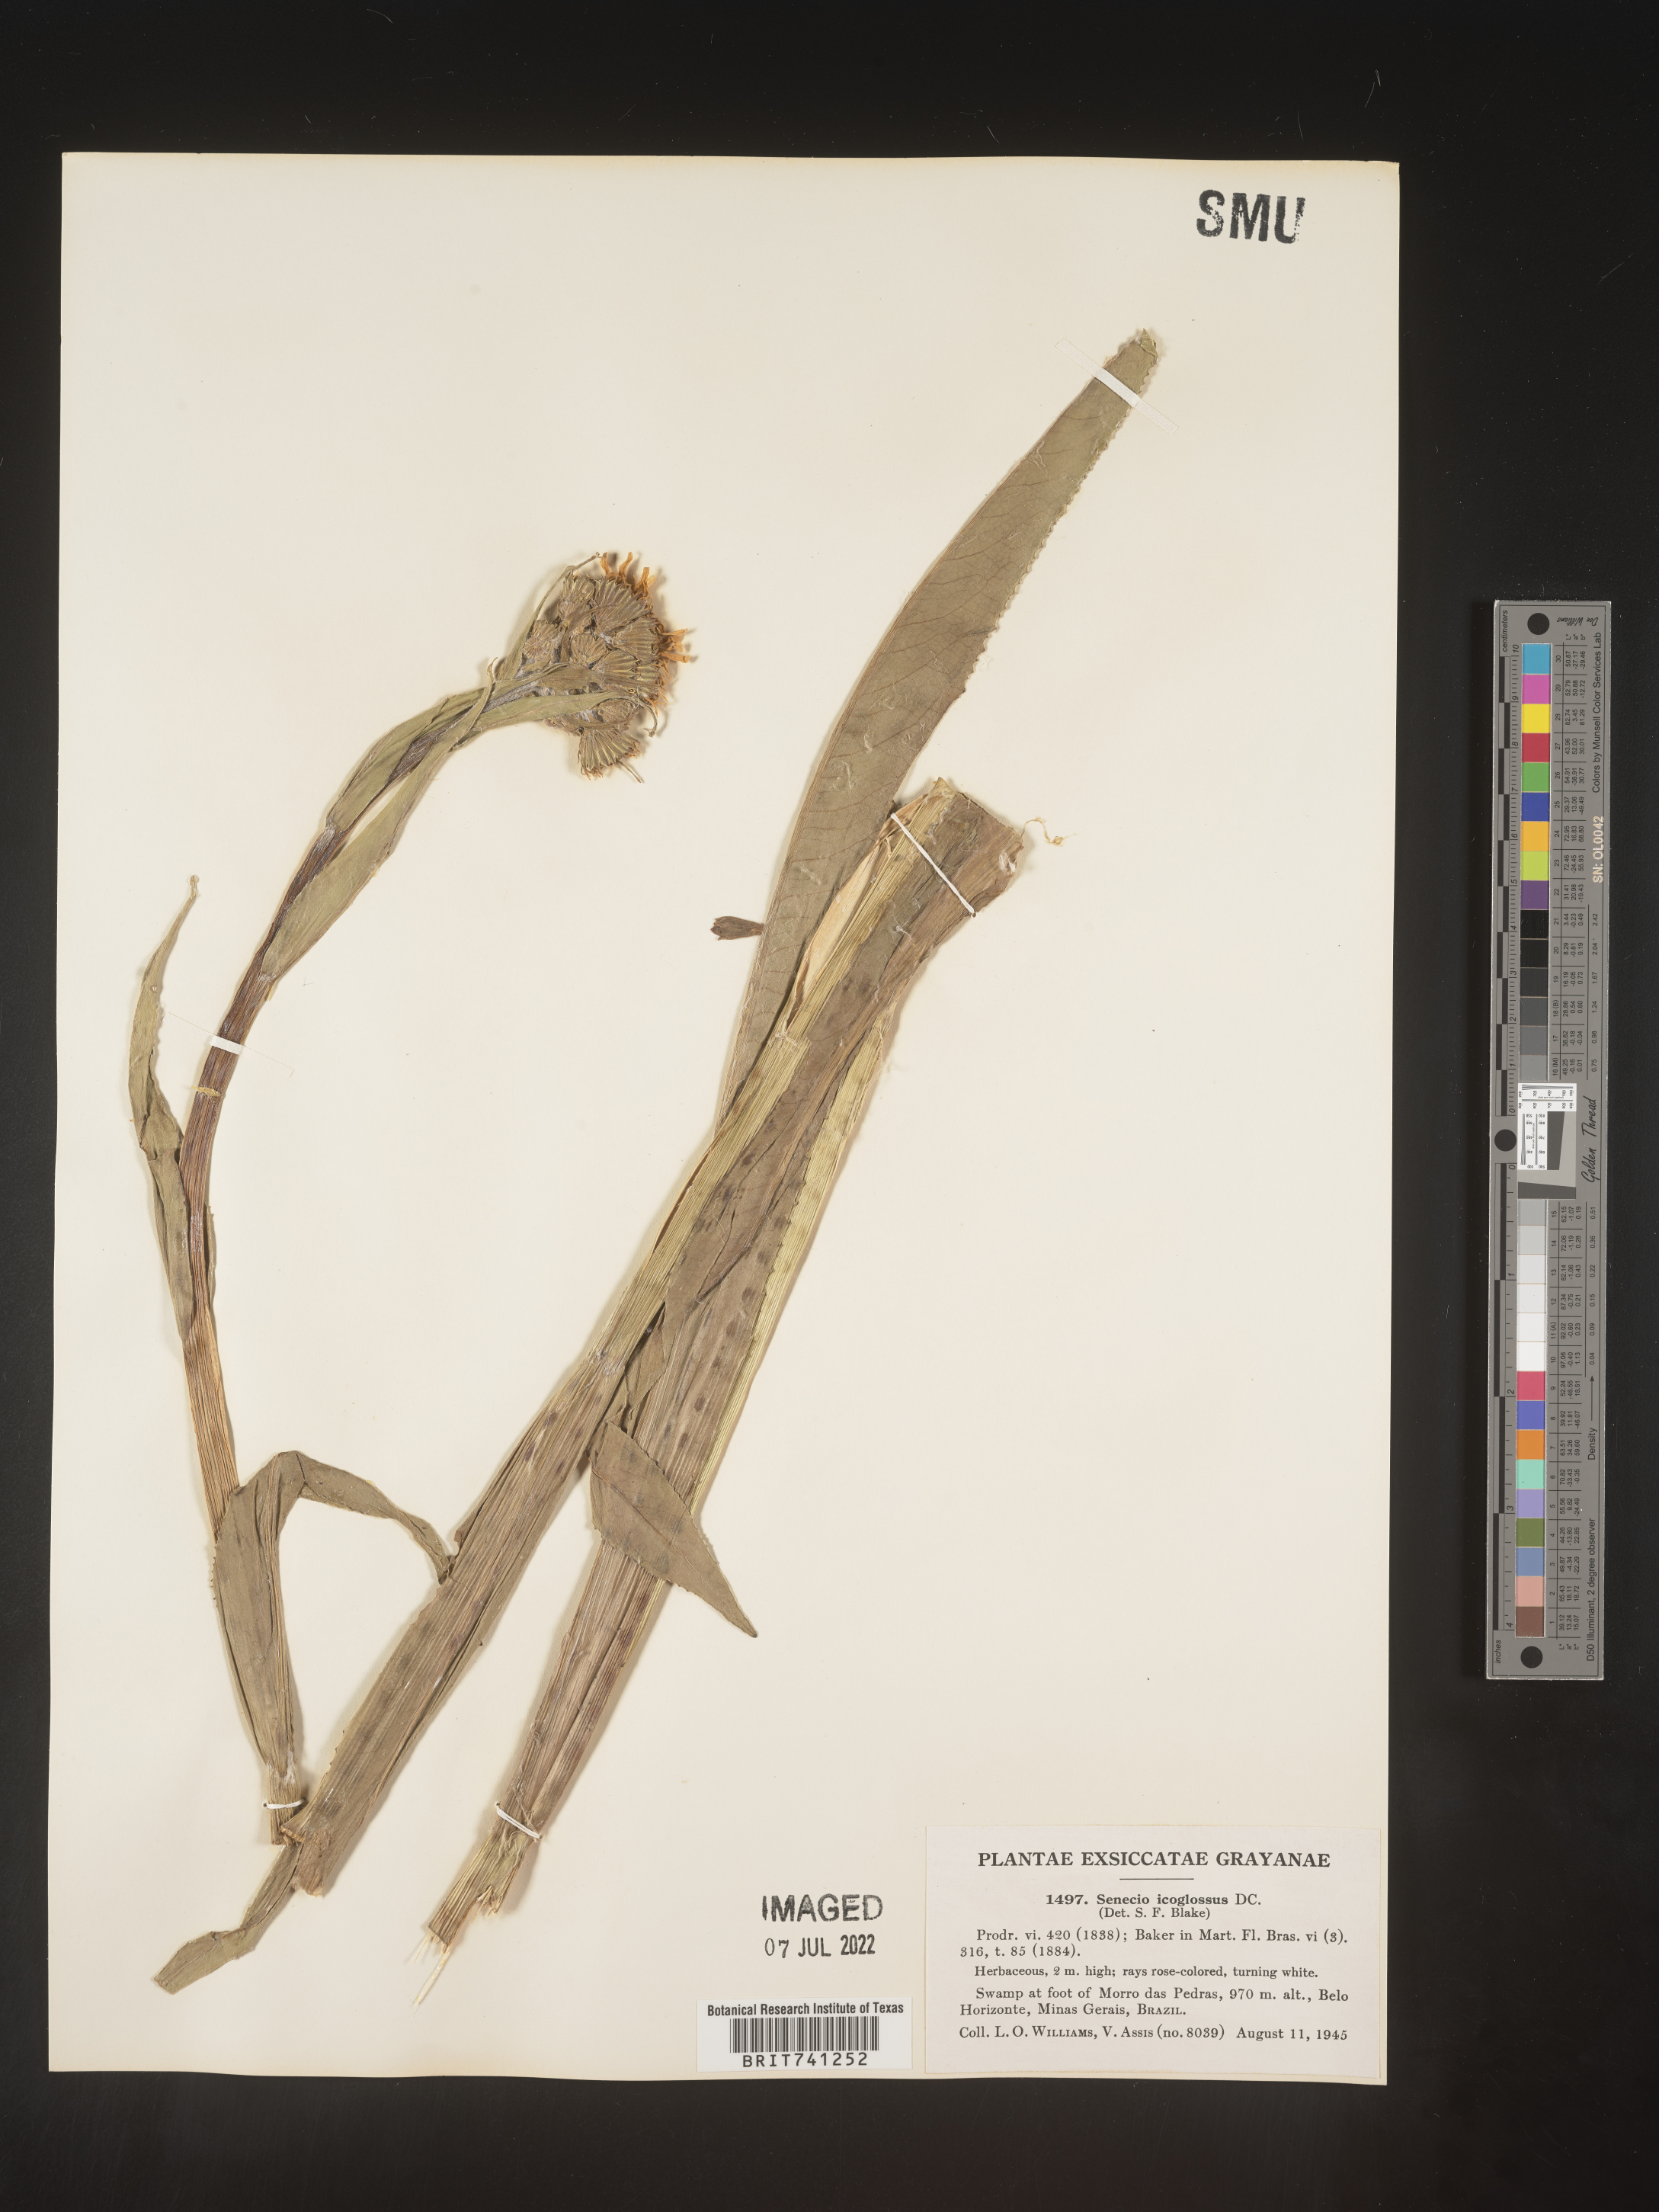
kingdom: Plantae
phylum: Tracheophyta
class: Magnoliopsida
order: Asterales
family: Asteraceae
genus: Senecio
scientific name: Senecio
